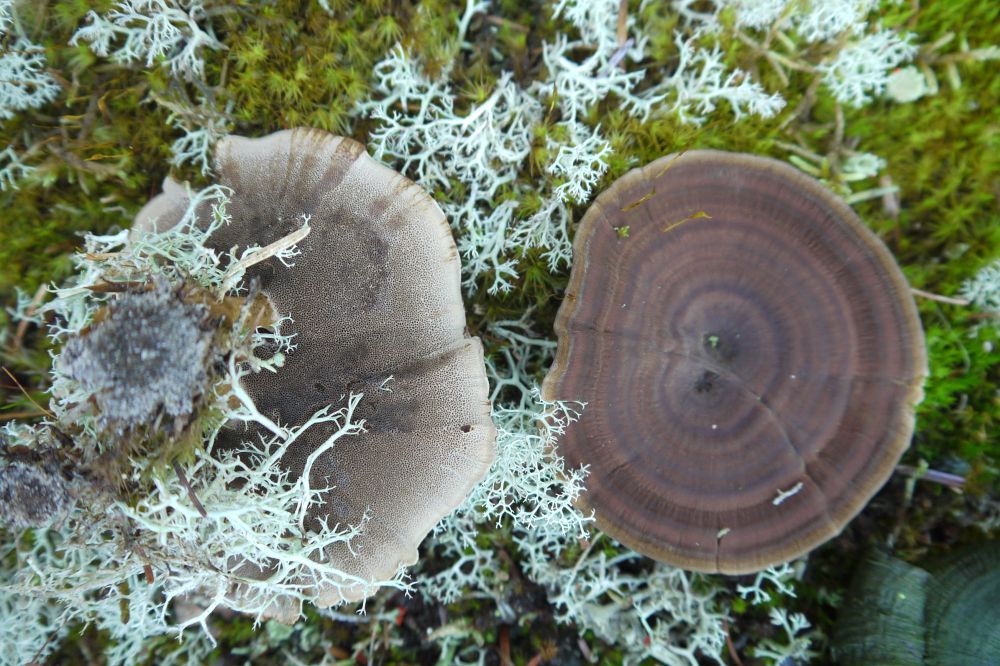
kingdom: Fungi
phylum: Basidiomycota
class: Agaricomycetes
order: Hymenochaetales
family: Hymenochaetaceae
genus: Coltricia
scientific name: Coltricia perennis
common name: almindelig sandporesvamp
